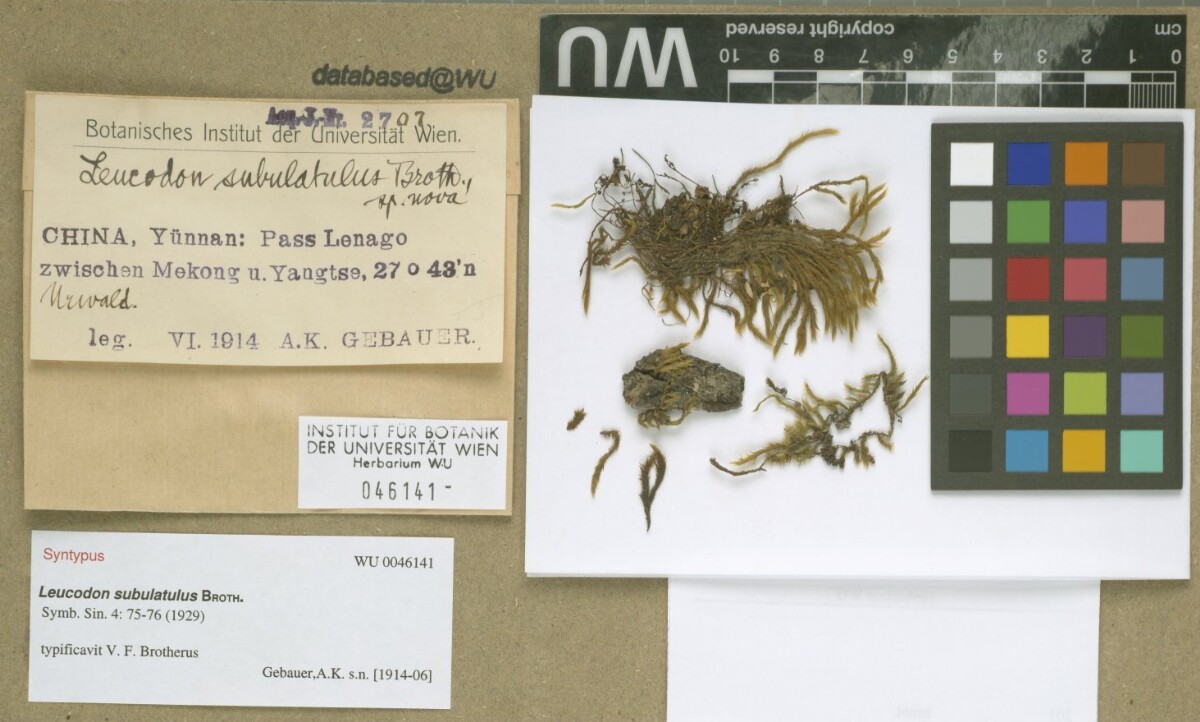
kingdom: Plantae
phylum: Bryophyta
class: Bryopsida
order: Hypnales
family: Leucodontaceae
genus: Leucodon
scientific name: Leucodon secundus
